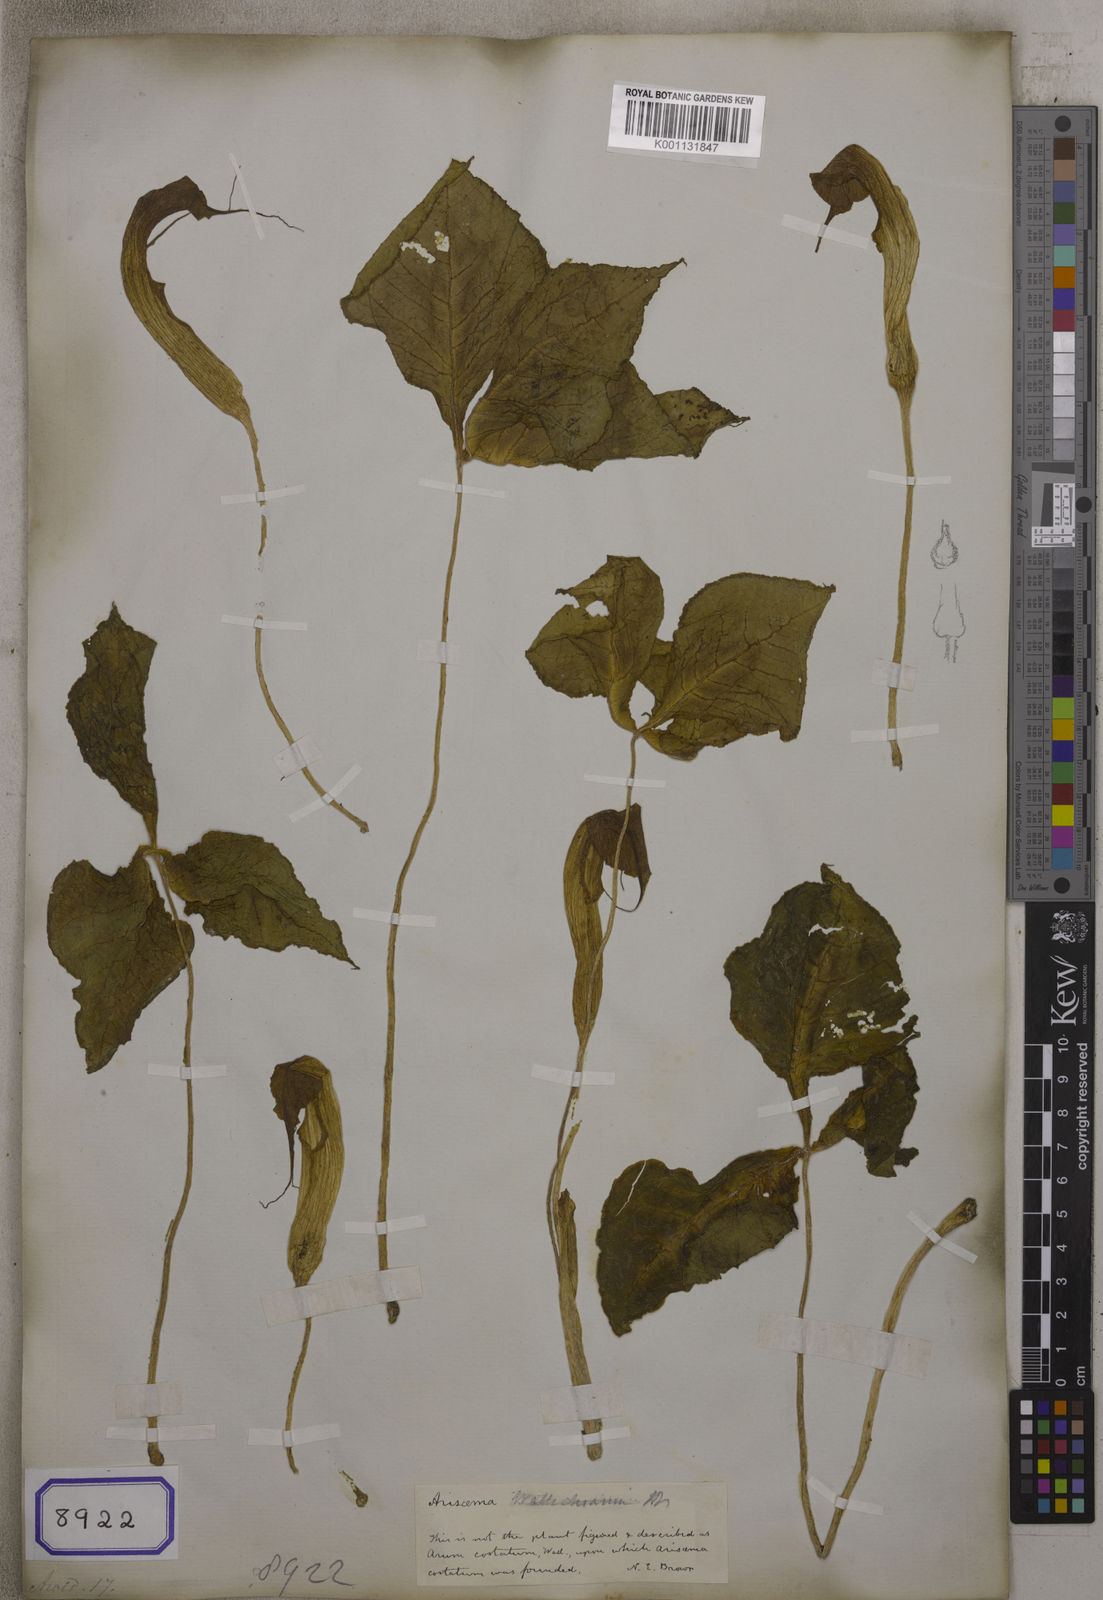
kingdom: Plantae
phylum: Tracheophyta
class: Liliopsida
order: Alismatales
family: Araceae
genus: Arisaema
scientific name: Arisaema costatum
